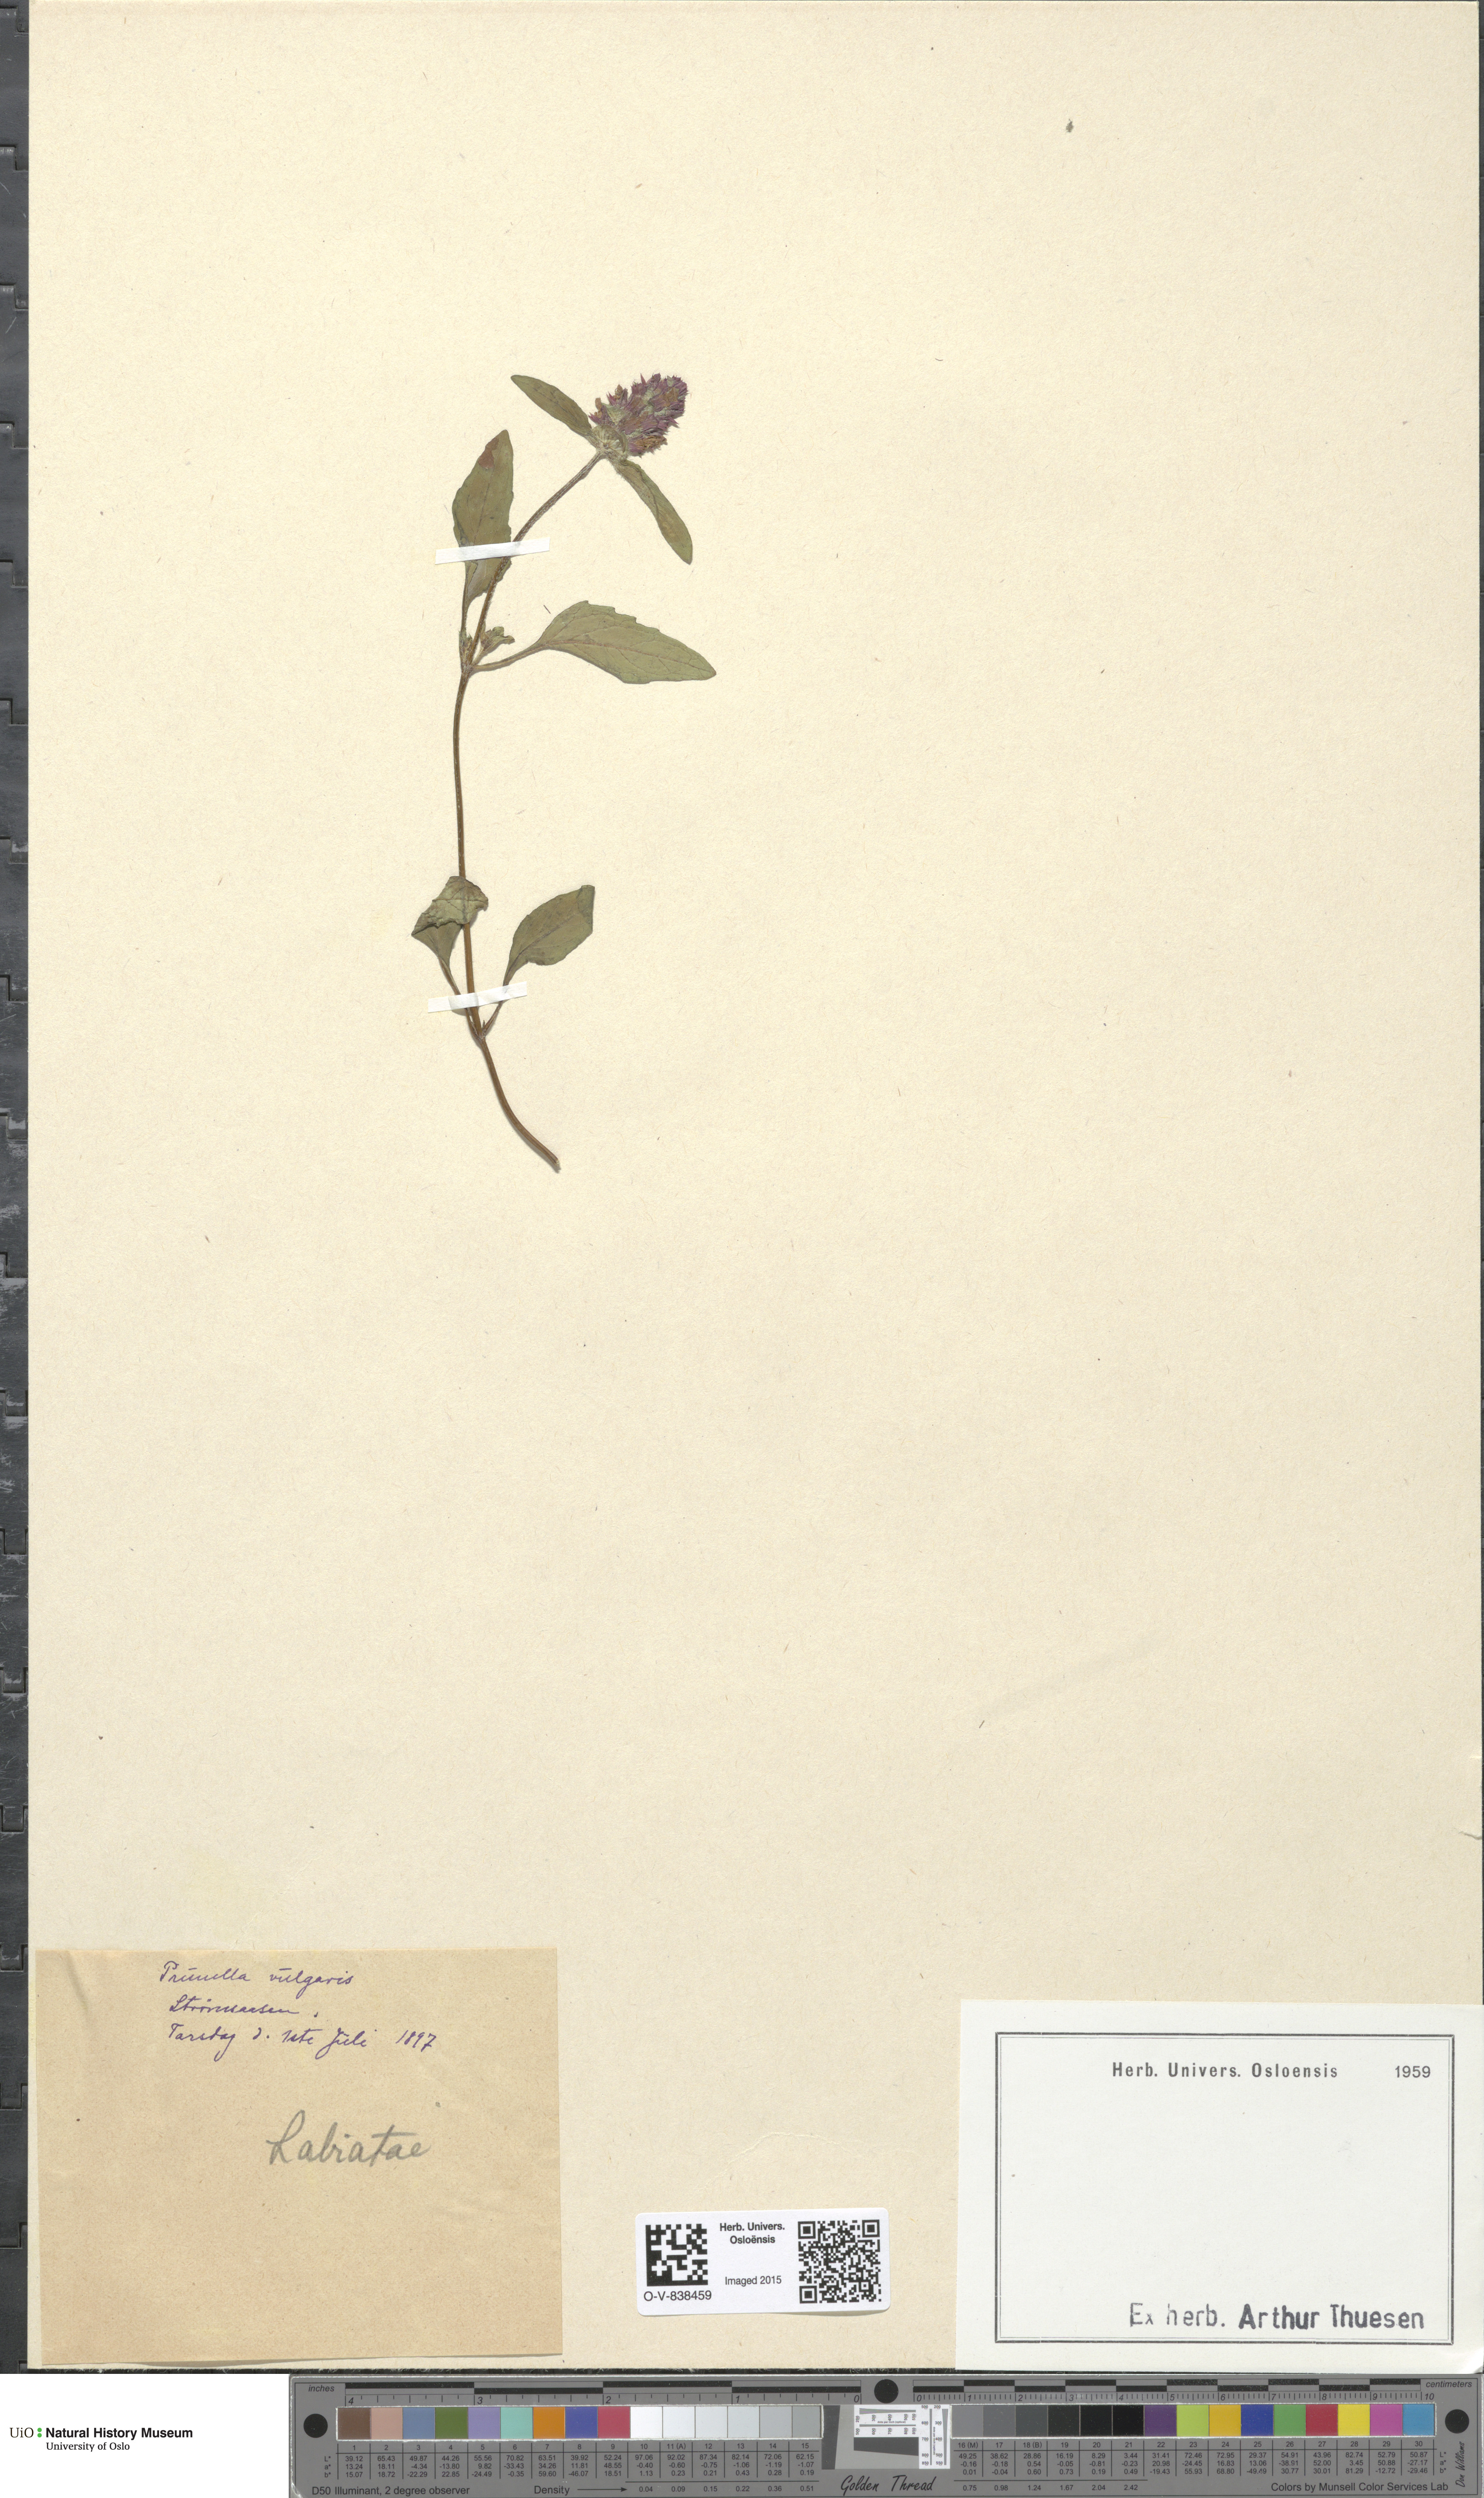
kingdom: Plantae
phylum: Tracheophyta
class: Magnoliopsida
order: Lamiales
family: Lamiaceae
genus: Prunella
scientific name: Prunella vulgaris
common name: Heal-all
